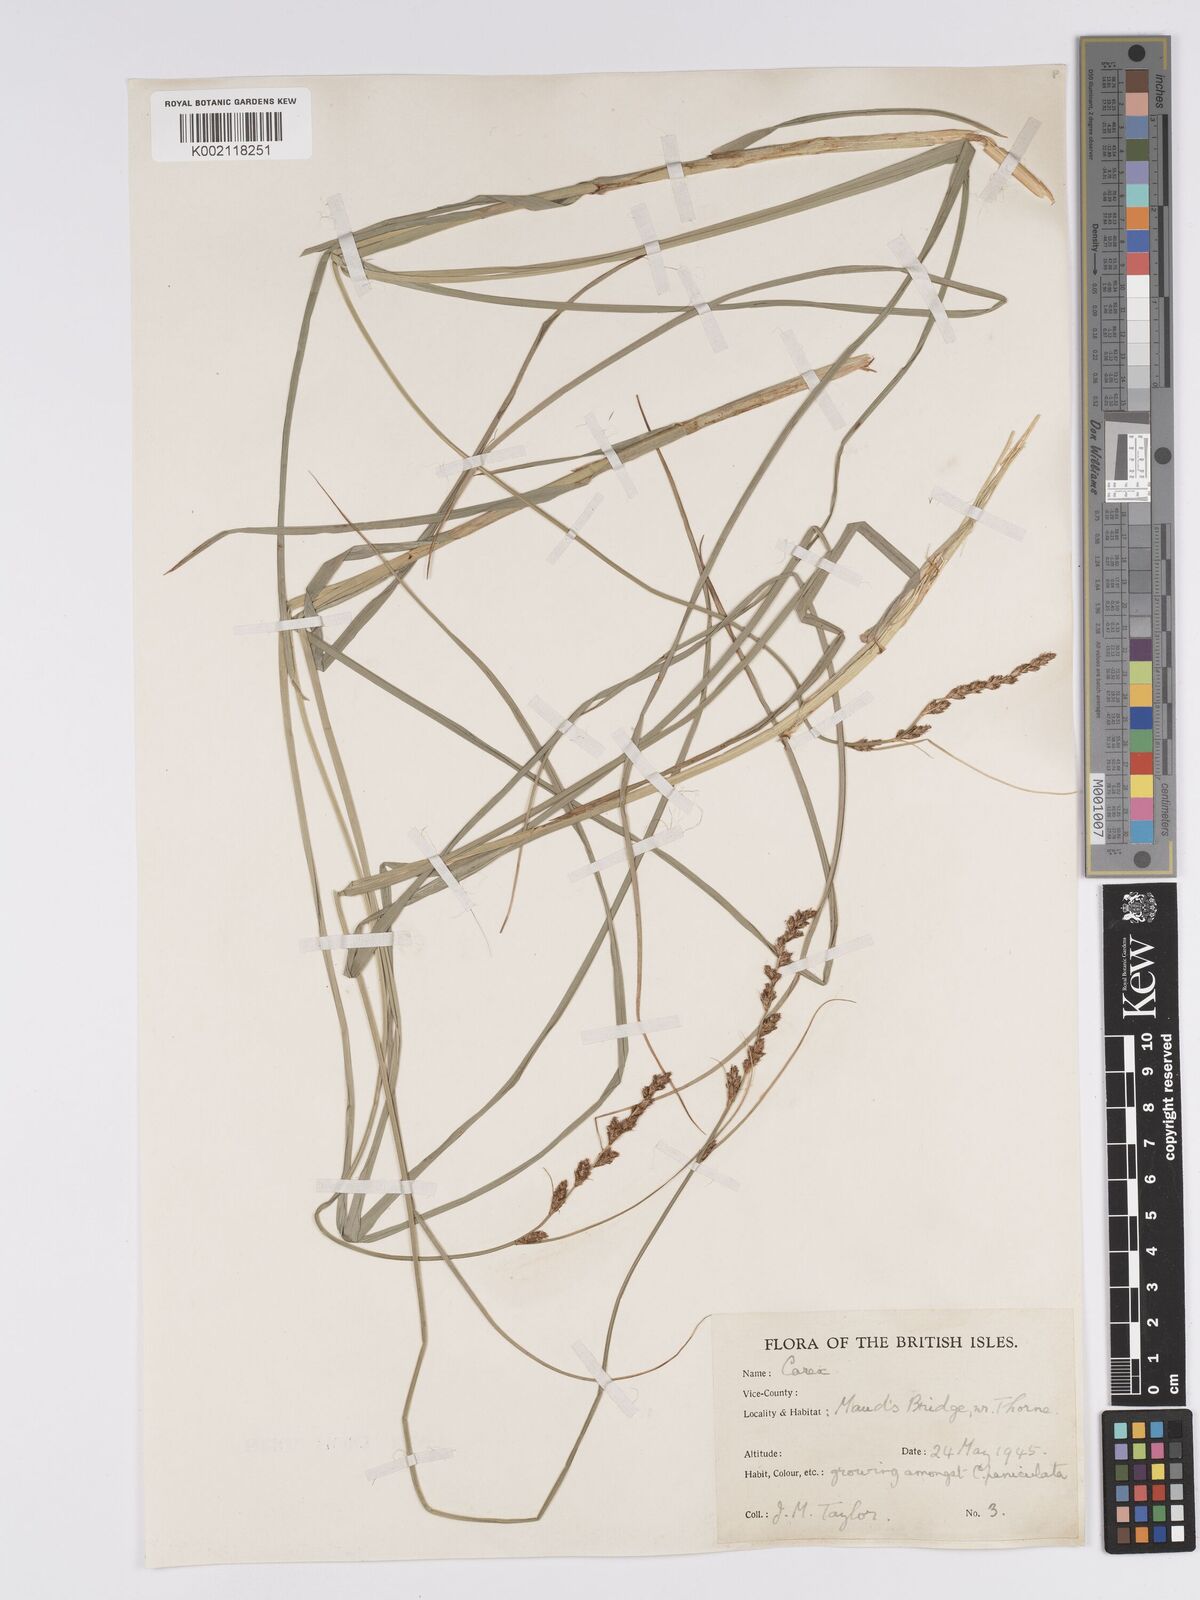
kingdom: Plantae
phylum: Tracheophyta
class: Liliopsida
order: Poales
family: Cyperaceae
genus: Carex
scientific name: Carex paniculata
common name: Greater tussock-sedge
